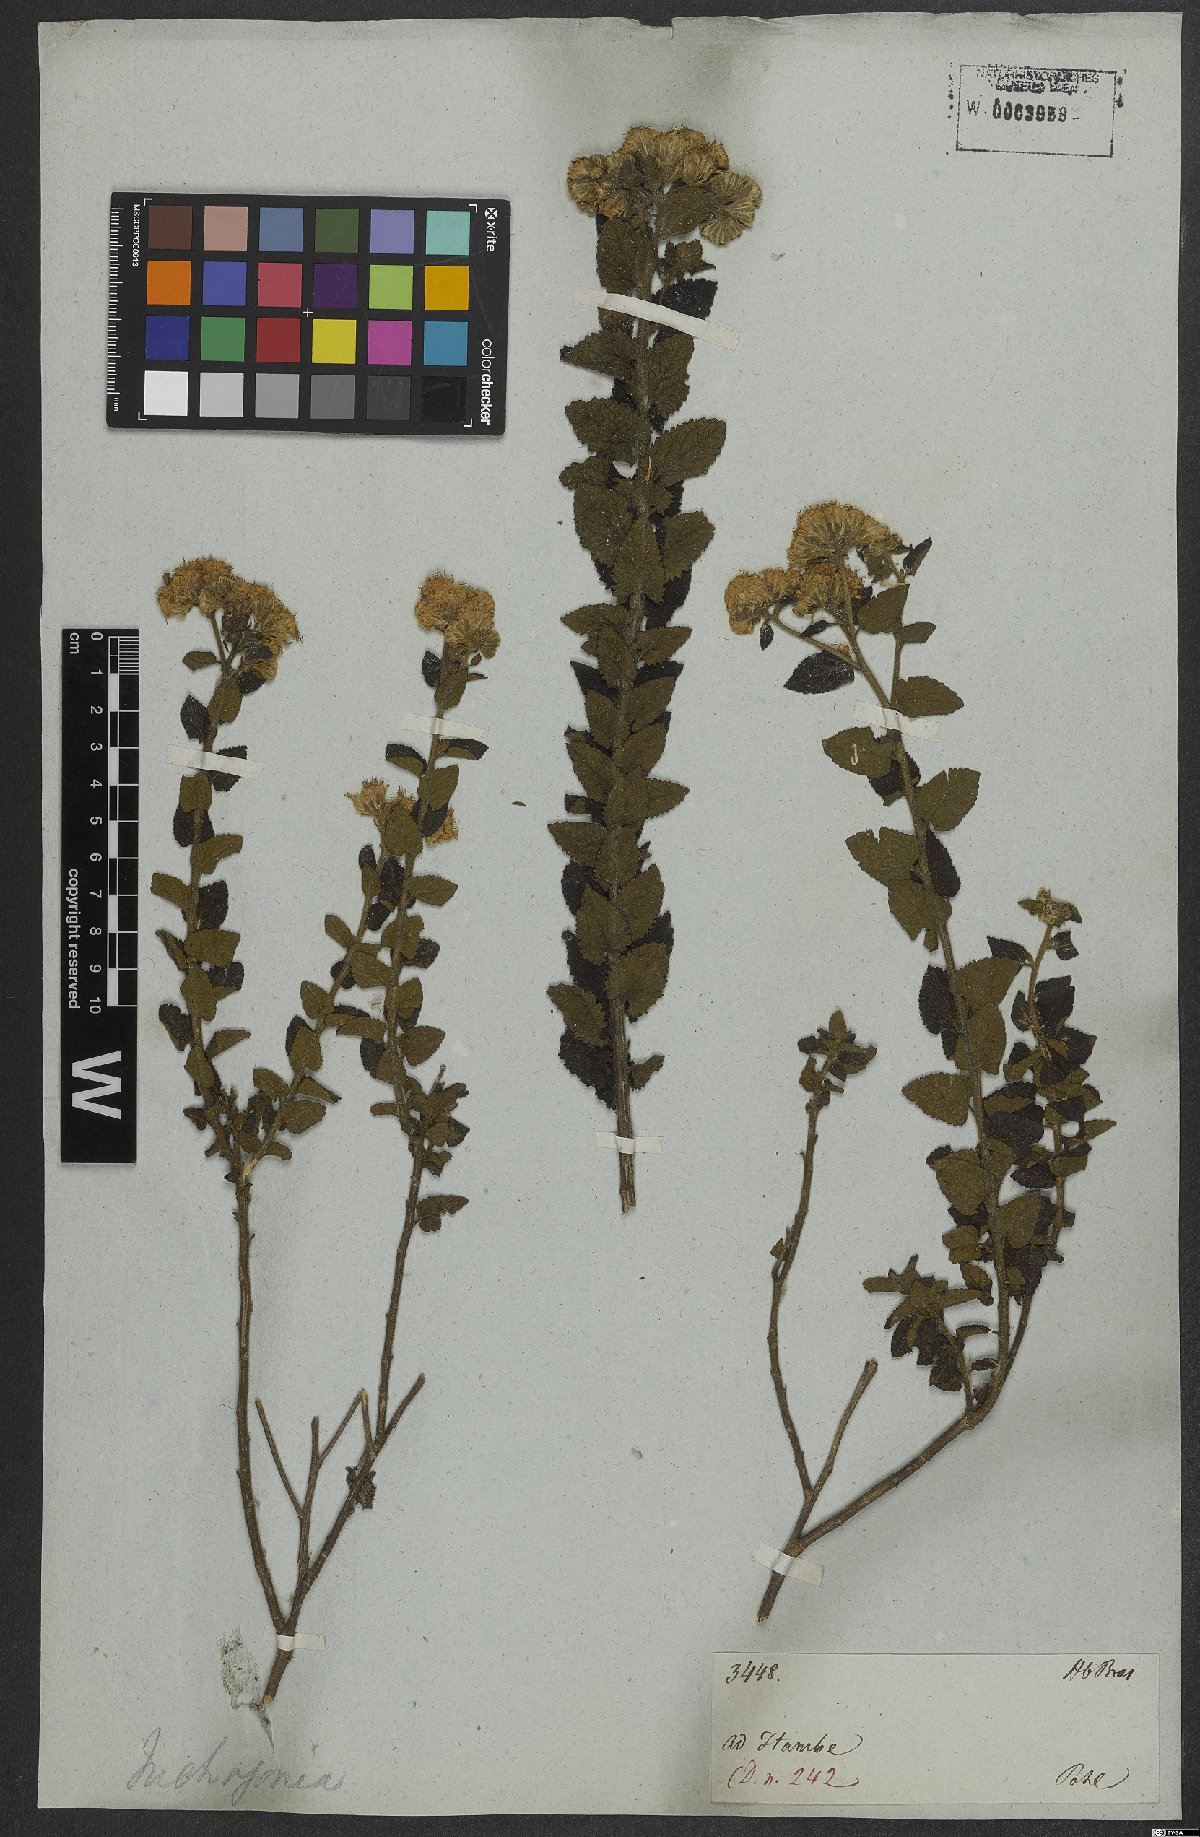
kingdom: Plantae
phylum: Tracheophyta
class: Magnoliopsida
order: Asterales
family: Asteraceae
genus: Trichogonia
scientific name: Trichogonia hirtiflora
